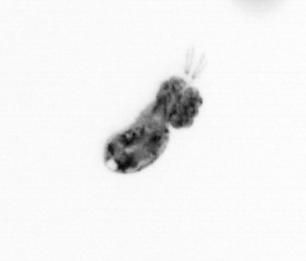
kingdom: Animalia
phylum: Arthropoda
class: Copepoda
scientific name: Copepoda
